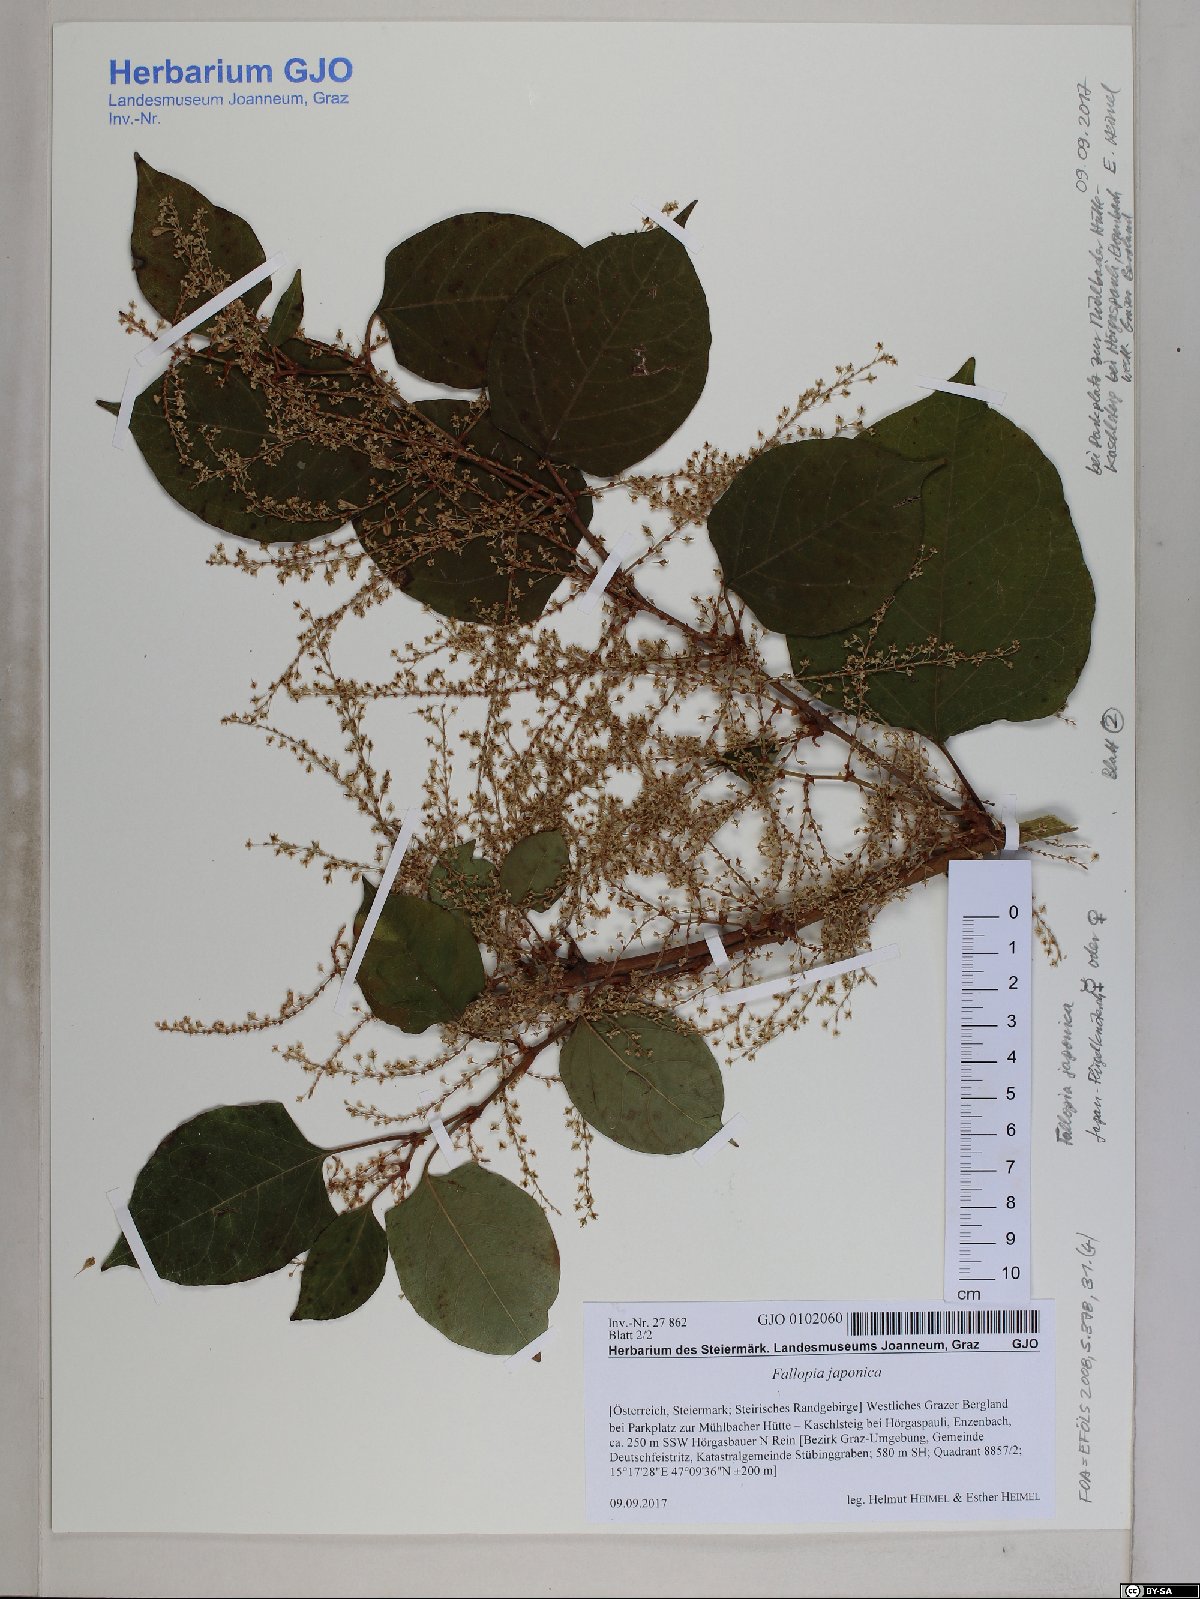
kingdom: Plantae
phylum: Tracheophyta
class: Magnoliopsida
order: Caryophyllales
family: Polygonaceae
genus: Reynoutria
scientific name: Reynoutria japonica
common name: Japanese knotweed
